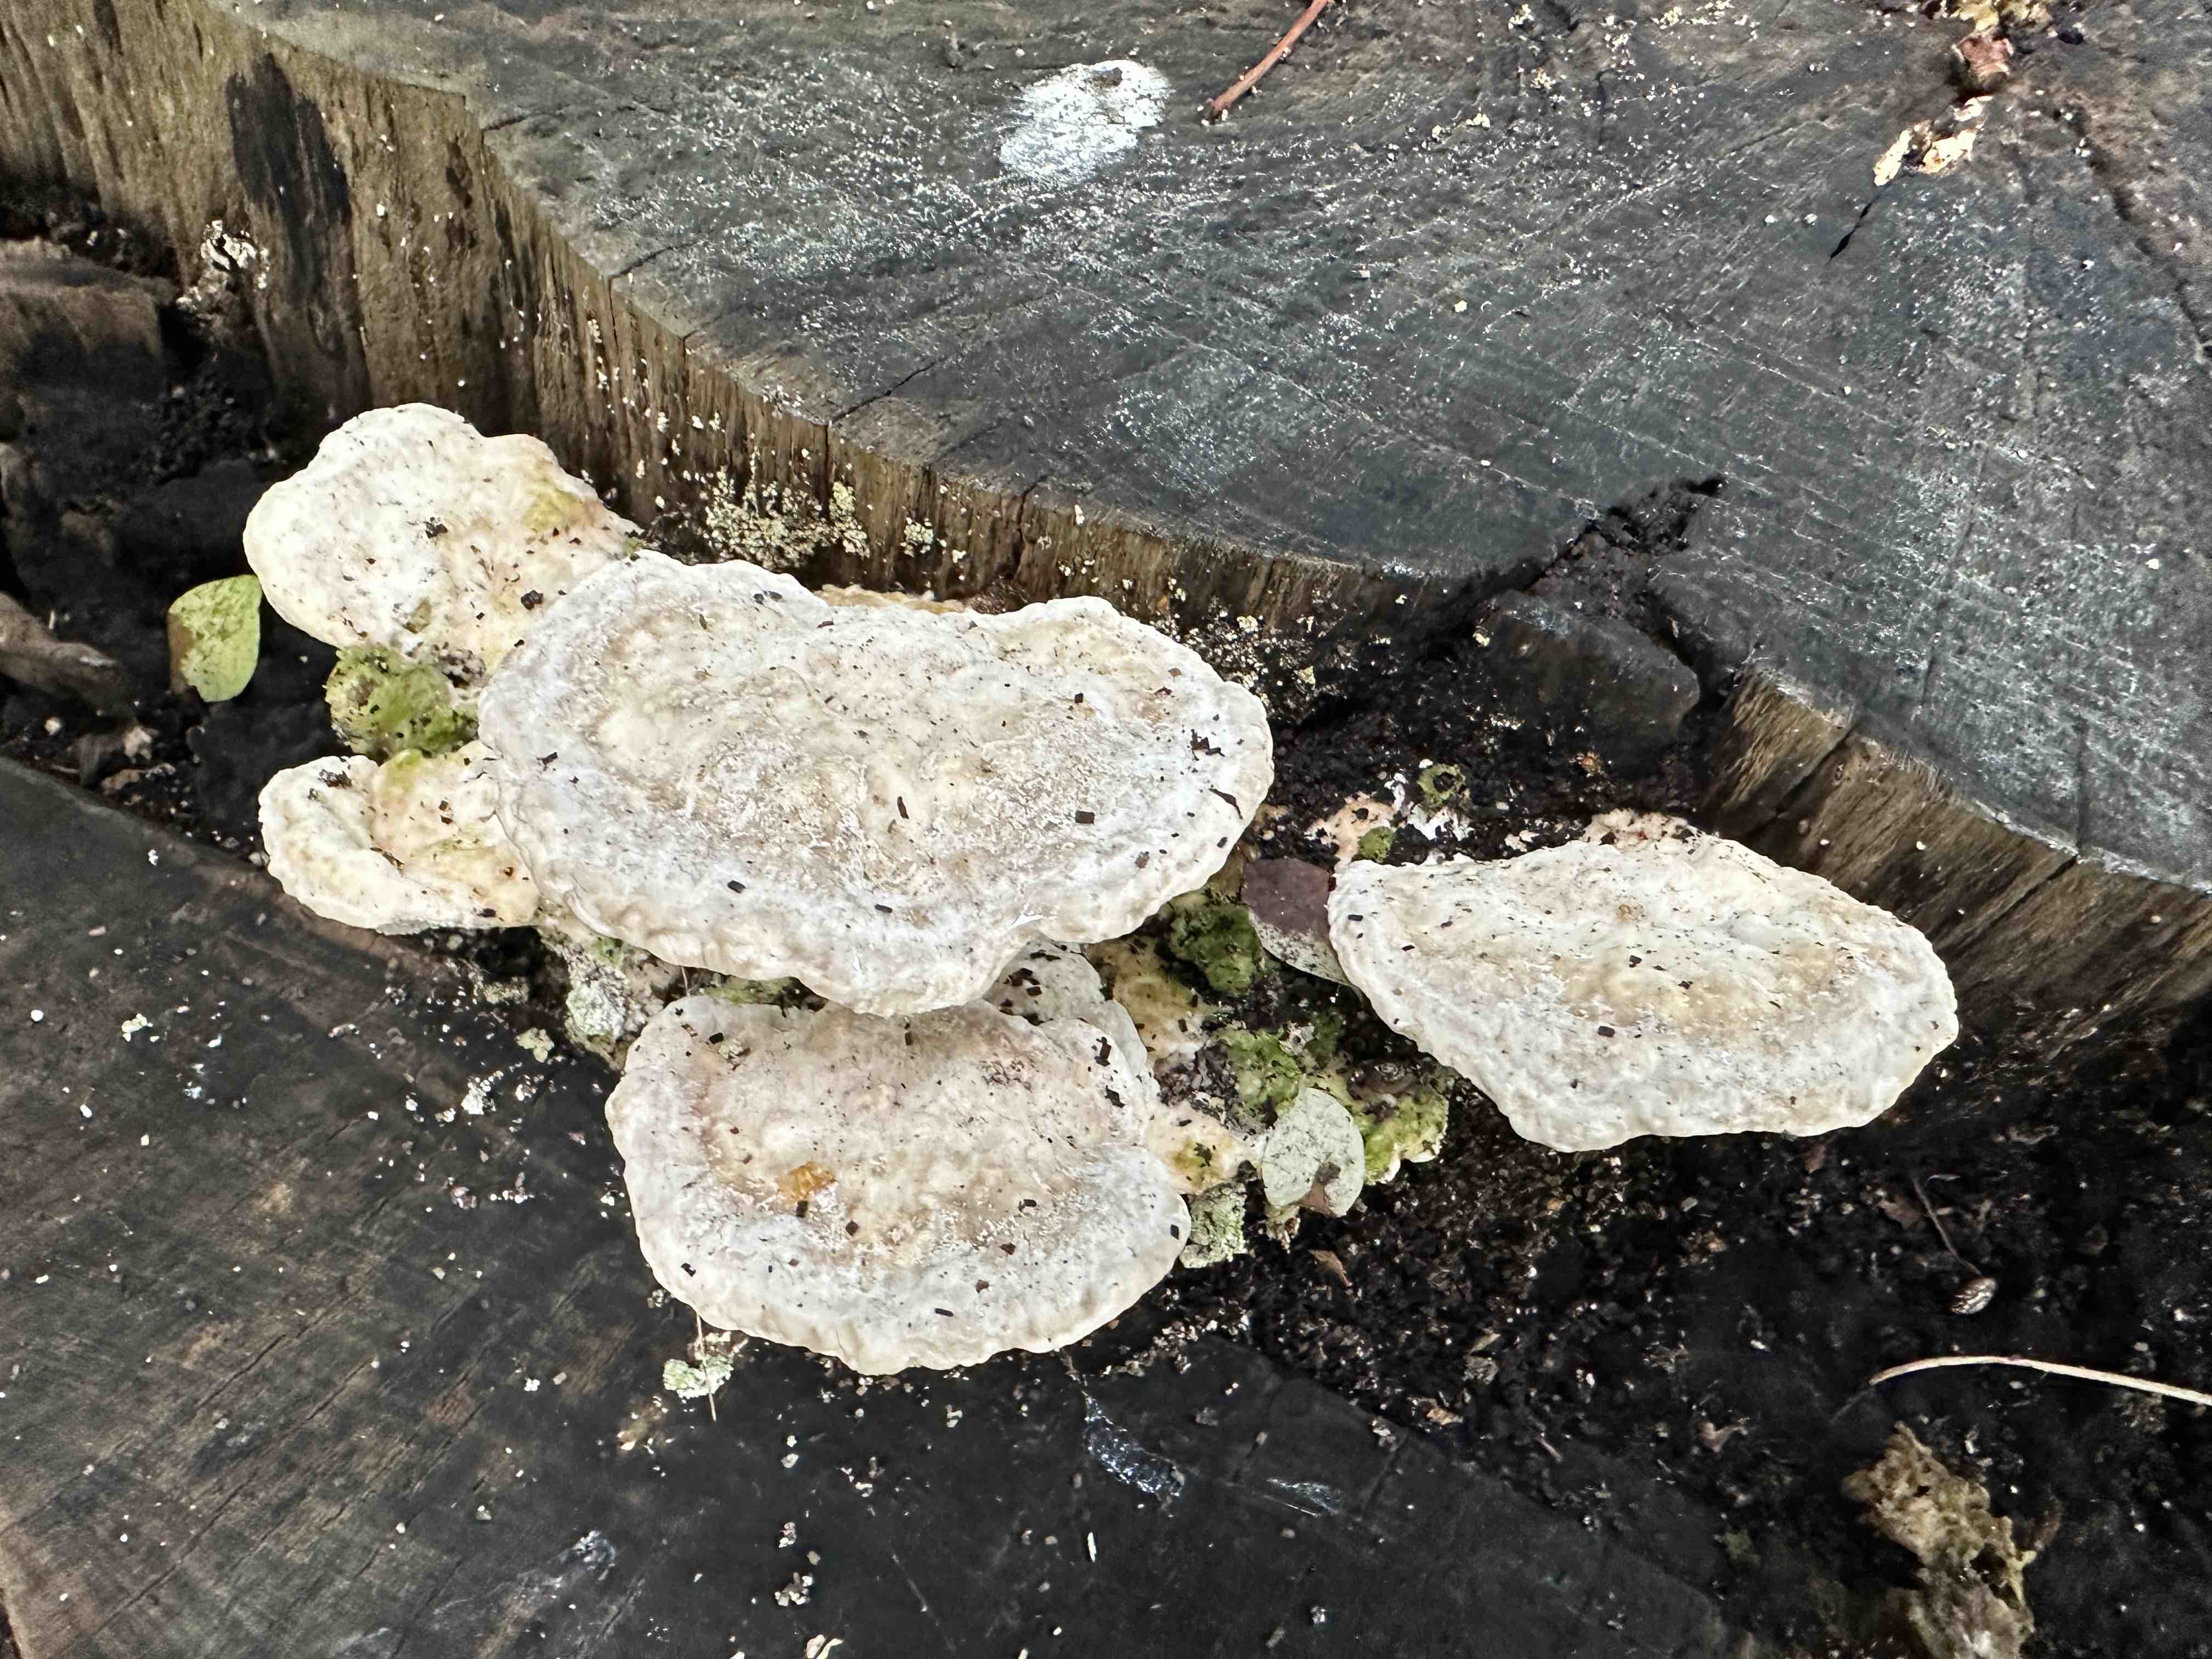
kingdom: Fungi
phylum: Basidiomycota
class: Agaricomycetes
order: Polyporales
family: Polyporaceae
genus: Trametes
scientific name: Trametes gibbosa
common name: puklet læderporesvamp
